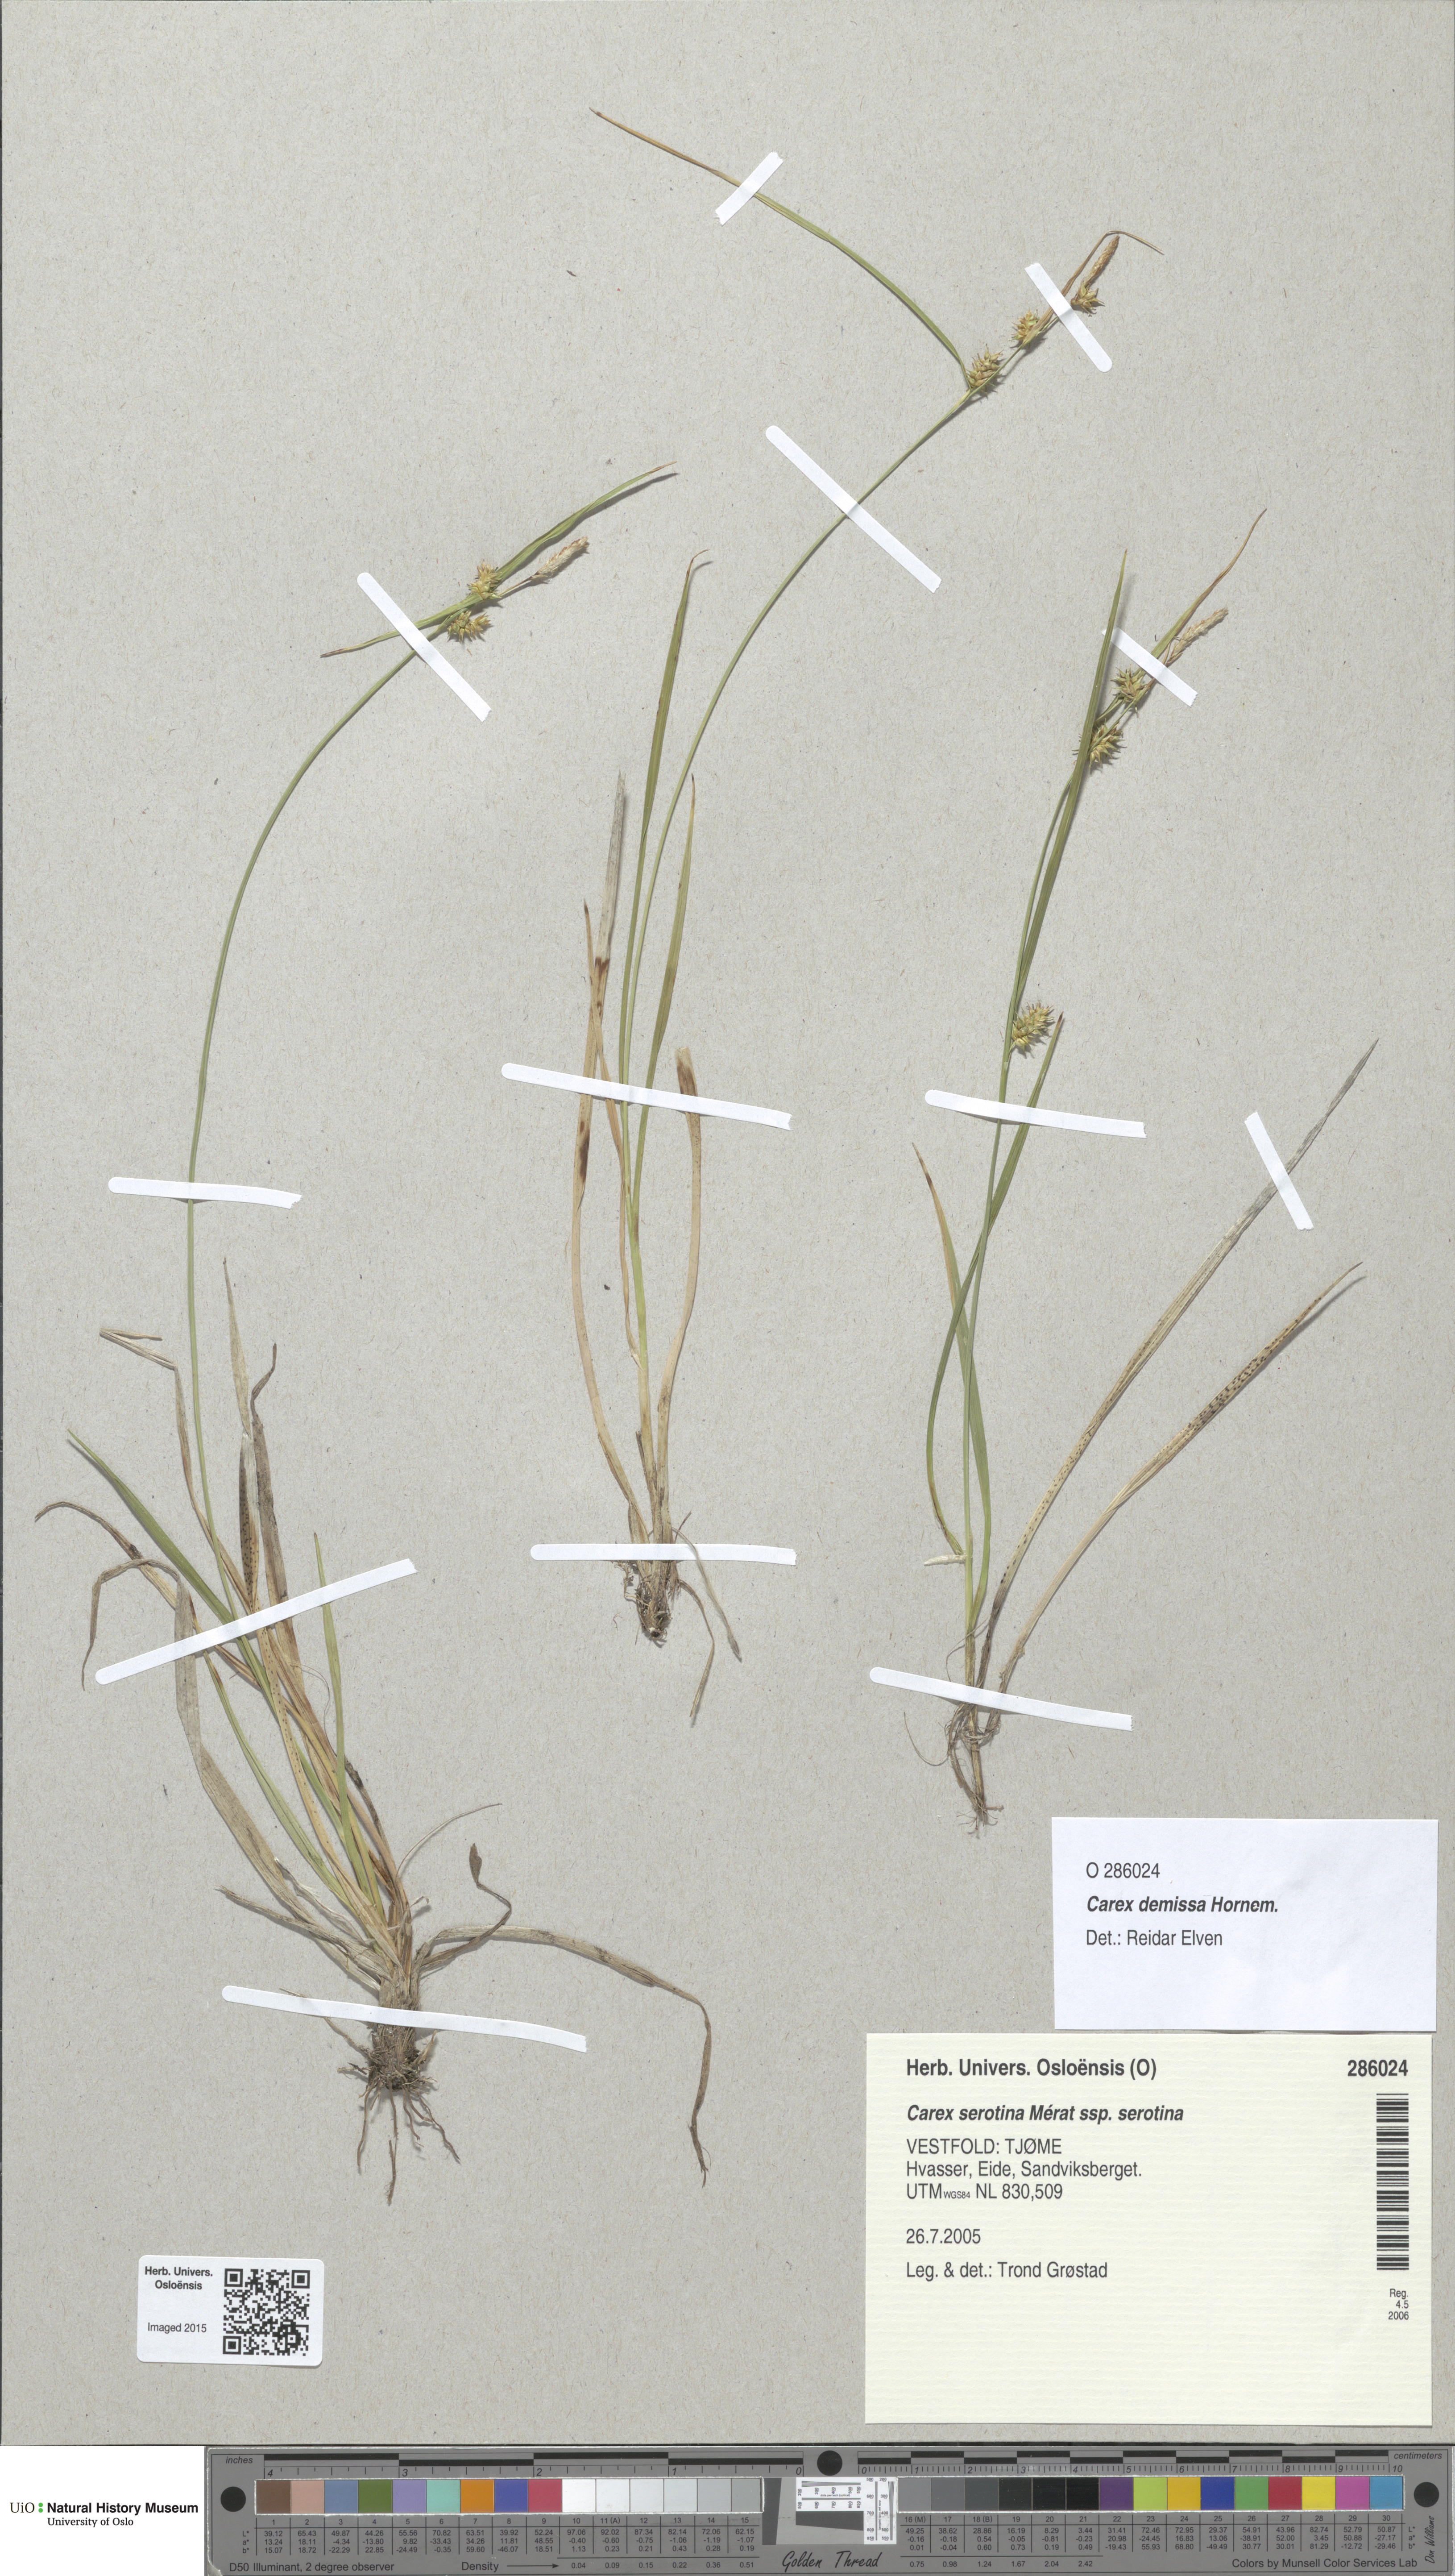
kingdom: Plantae
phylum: Tracheophyta
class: Liliopsida
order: Poales
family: Cyperaceae
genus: Carex
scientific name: Carex demissa
